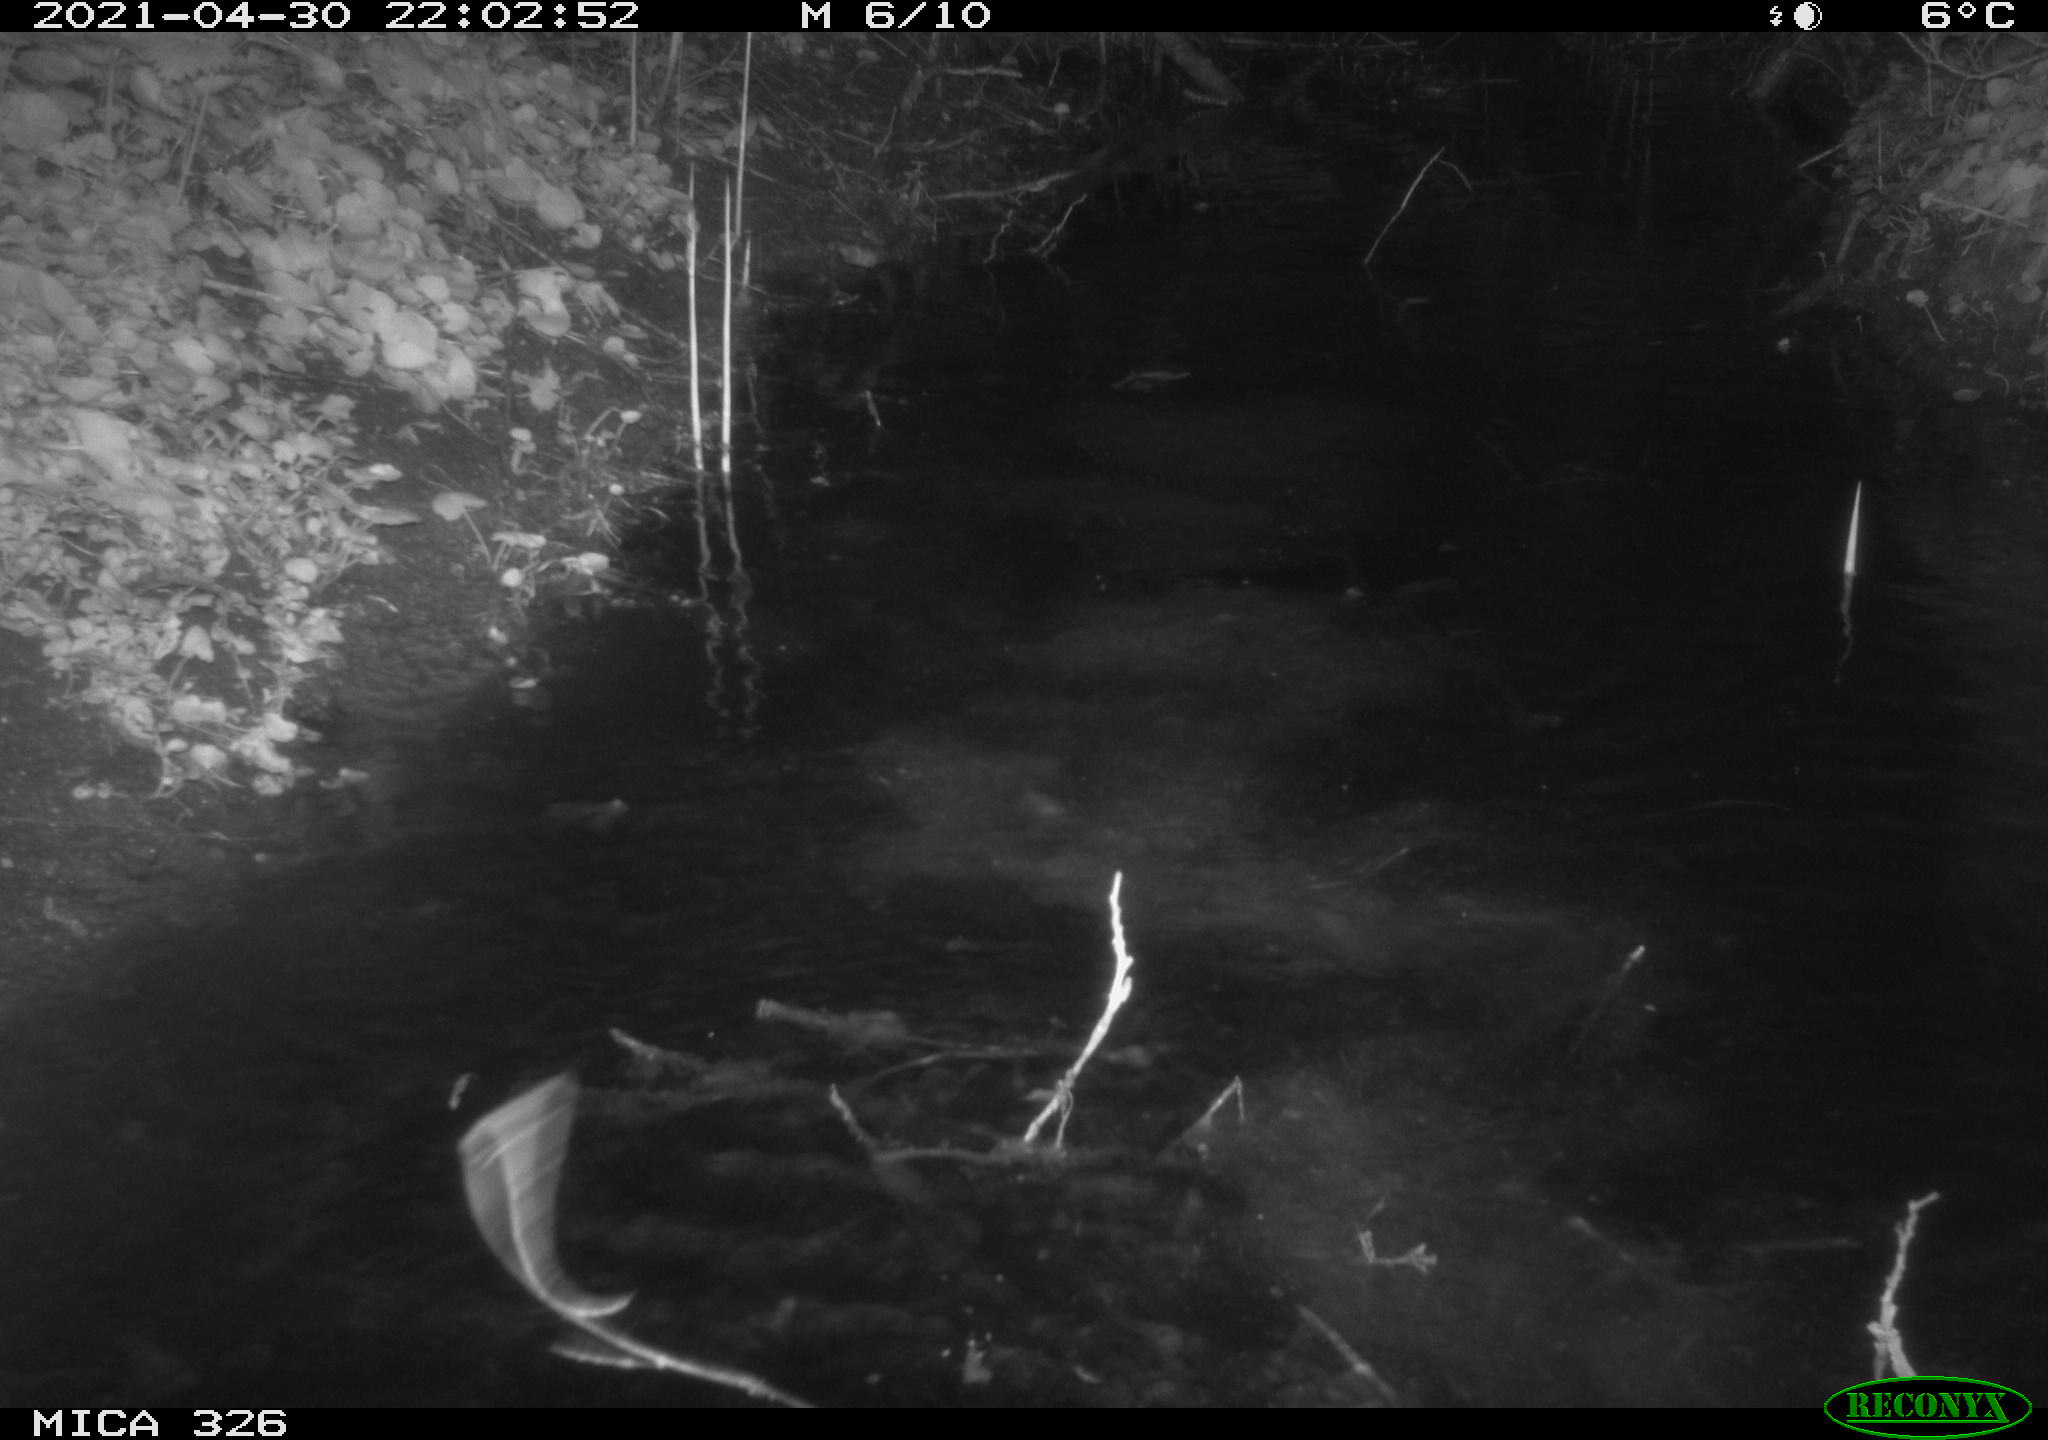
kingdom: Animalia
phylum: Chordata
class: Mammalia
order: Rodentia
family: Myocastoridae
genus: Myocastor
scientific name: Myocastor coypus
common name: Coypu
